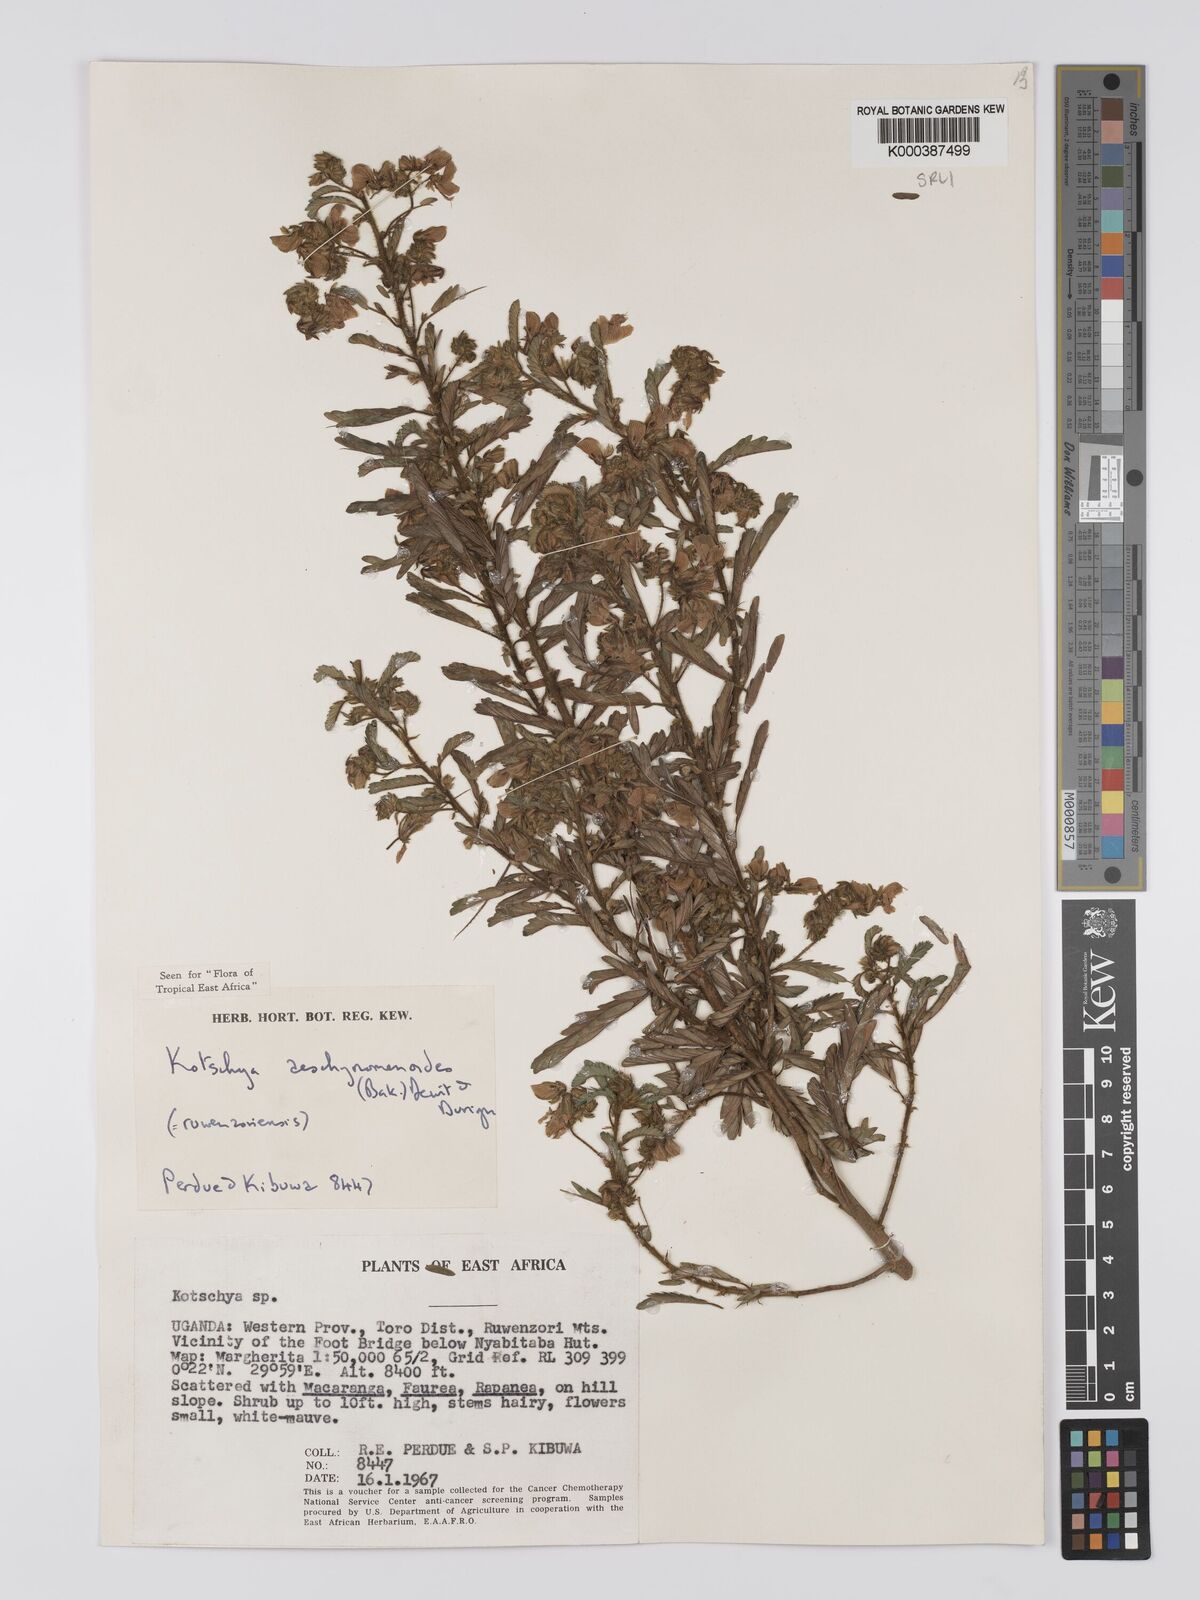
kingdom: Plantae
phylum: Tracheophyta
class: Magnoliopsida
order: Fabales
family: Fabaceae
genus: Kotschya
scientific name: Kotschya aeschynomenoides
